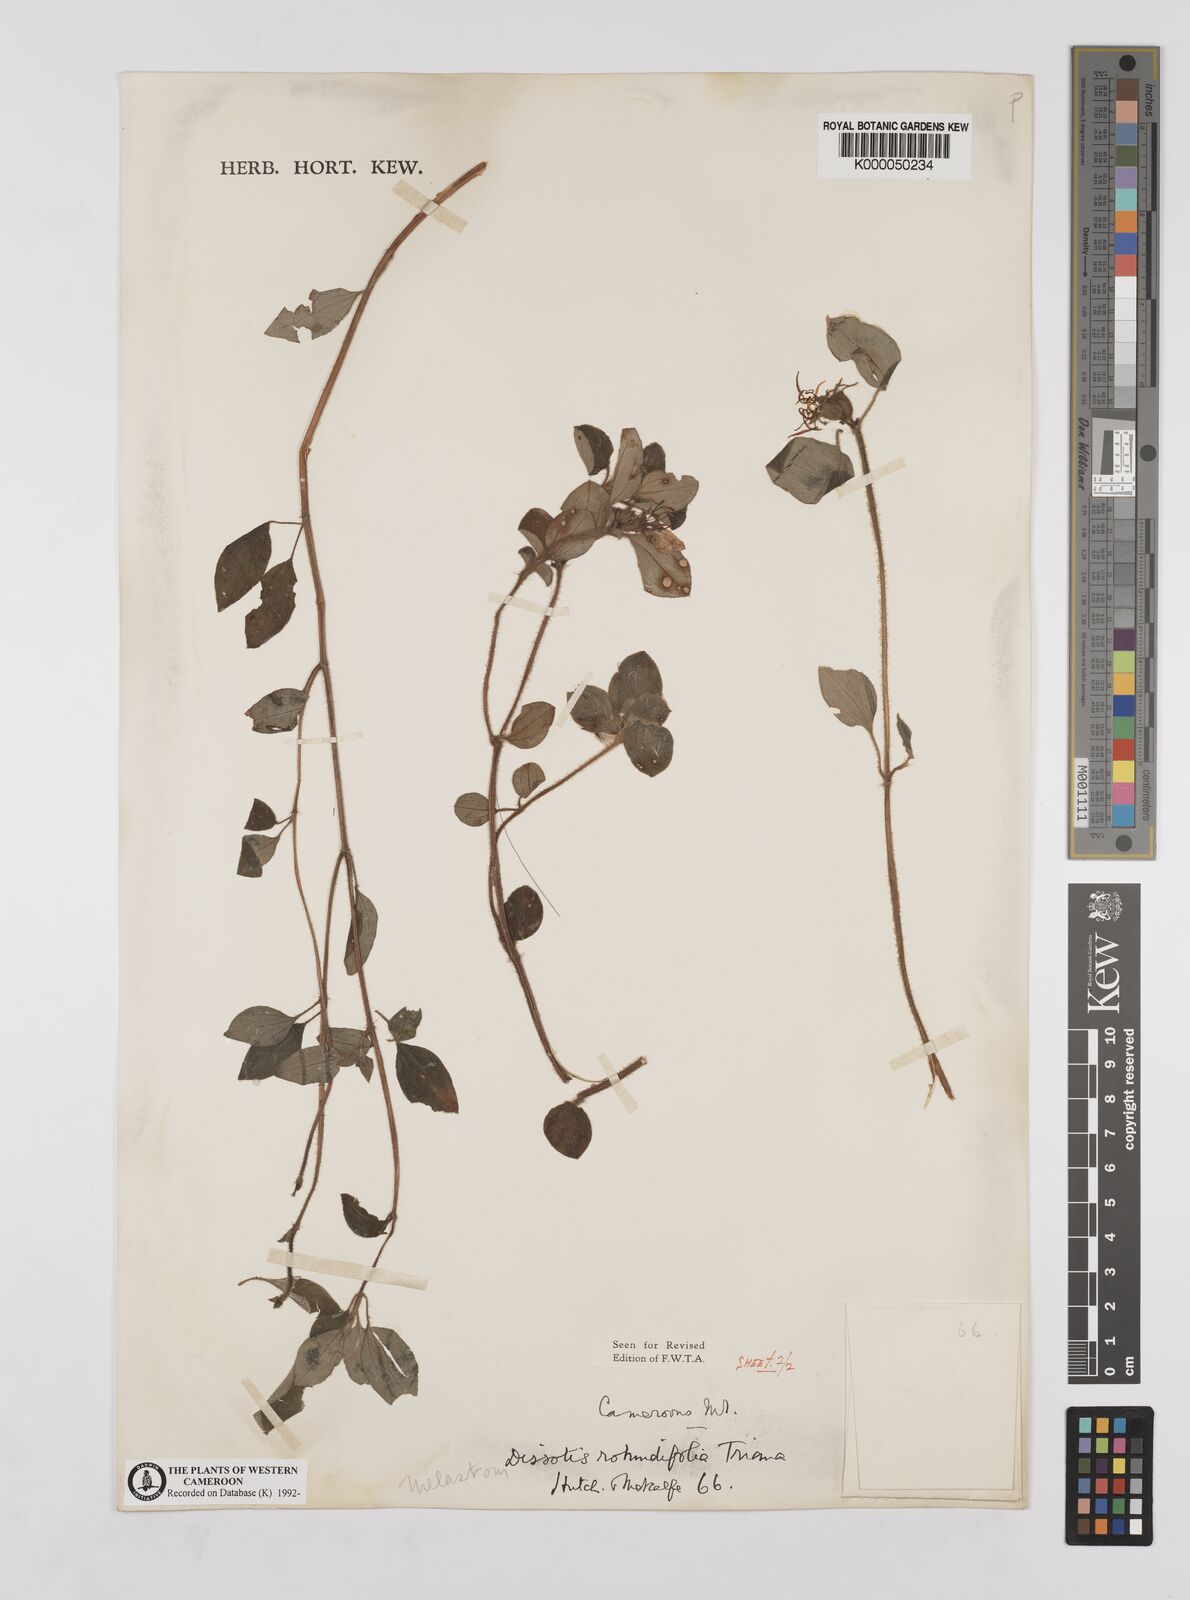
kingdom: Plantae
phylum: Tracheophyta
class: Magnoliopsida
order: Myrtales
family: Melastomataceae
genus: Heterotis
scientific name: Heterotis rotundifolia
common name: Pinklady
